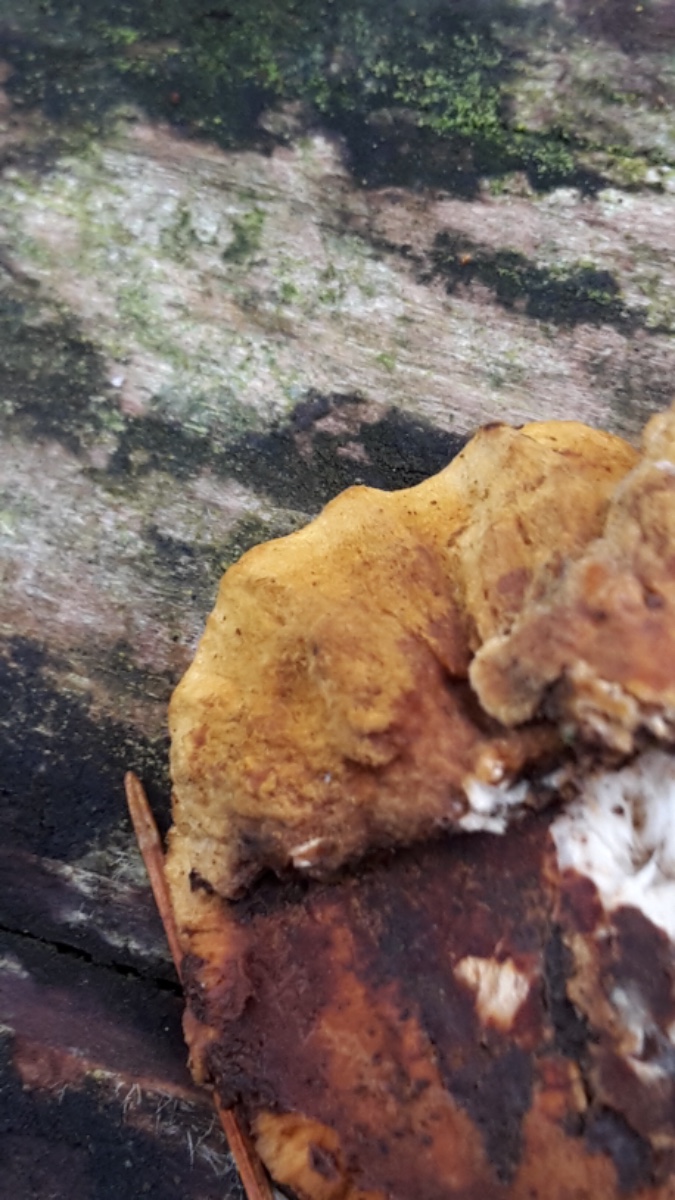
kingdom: Fungi
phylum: Basidiomycota
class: Agaricomycetes
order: Polyporales
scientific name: Polyporales
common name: poresvampordenen
